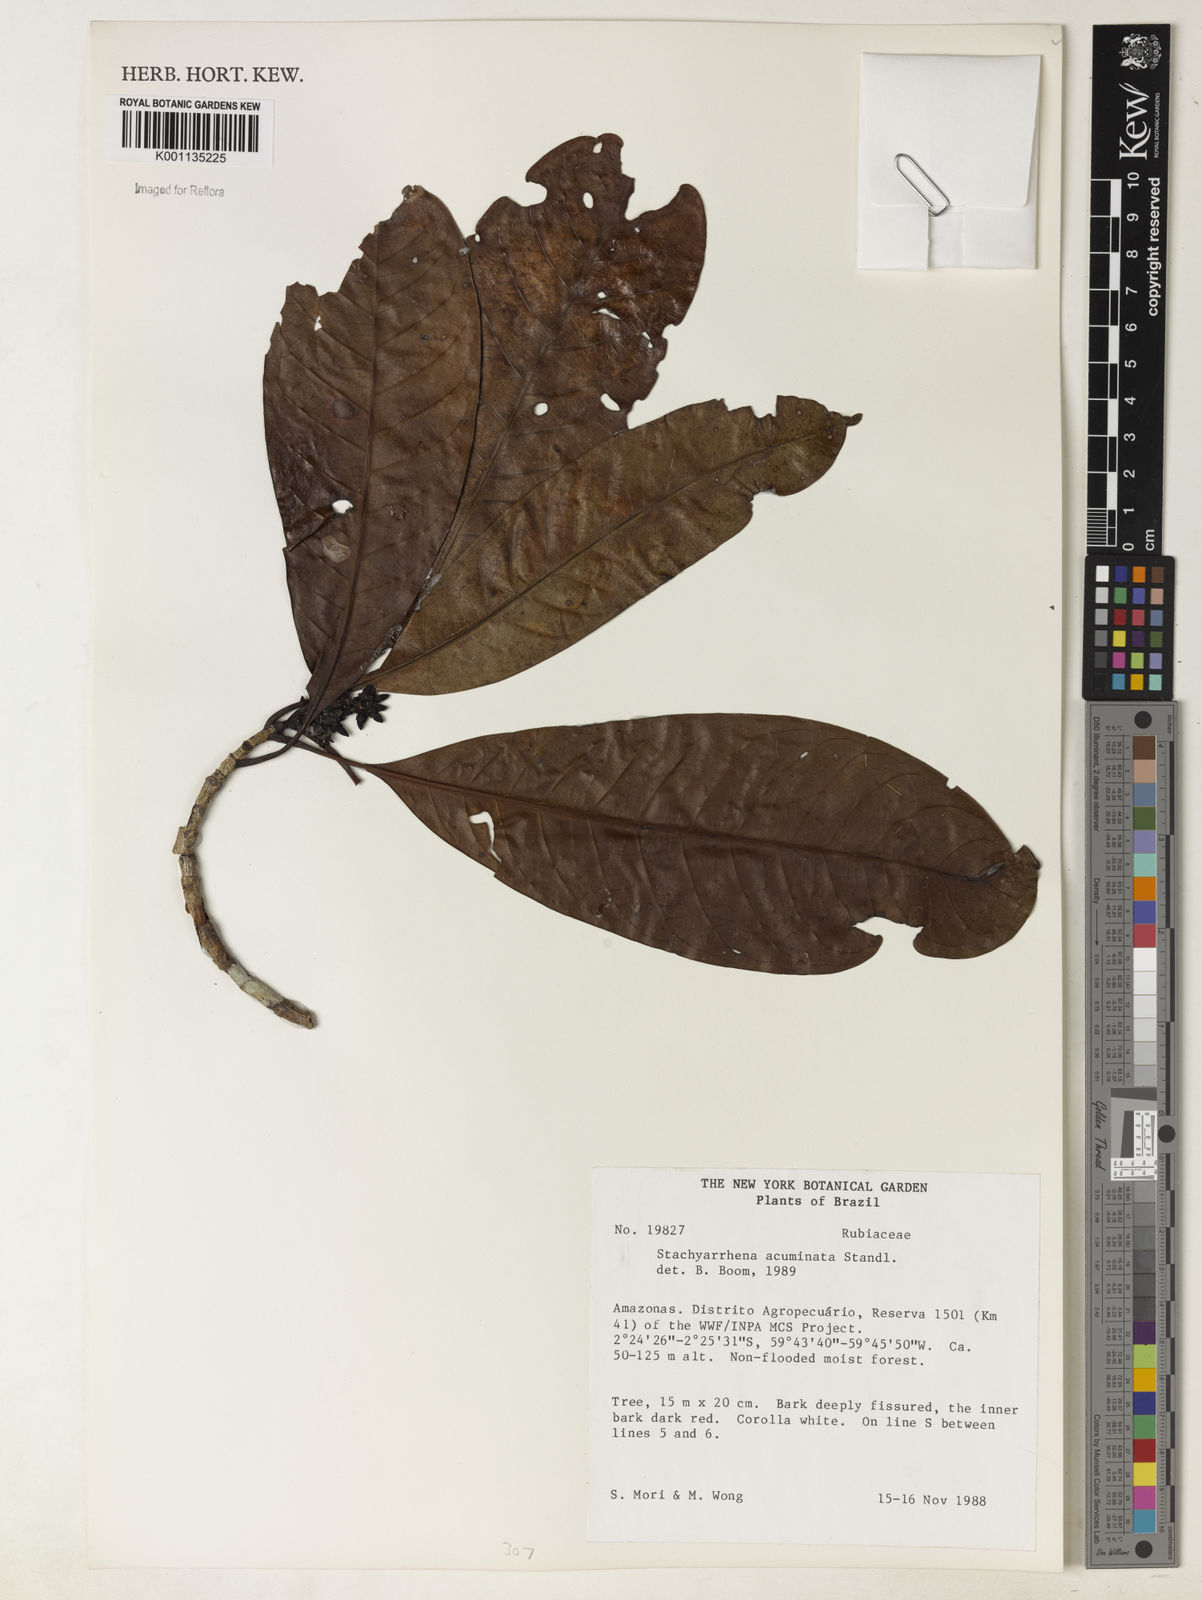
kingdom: Plantae
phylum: Tracheophyta
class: Magnoliopsida
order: Gentianales
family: Rubiaceae
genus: Stachyarrhena
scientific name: Stachyarrhena acuminata
